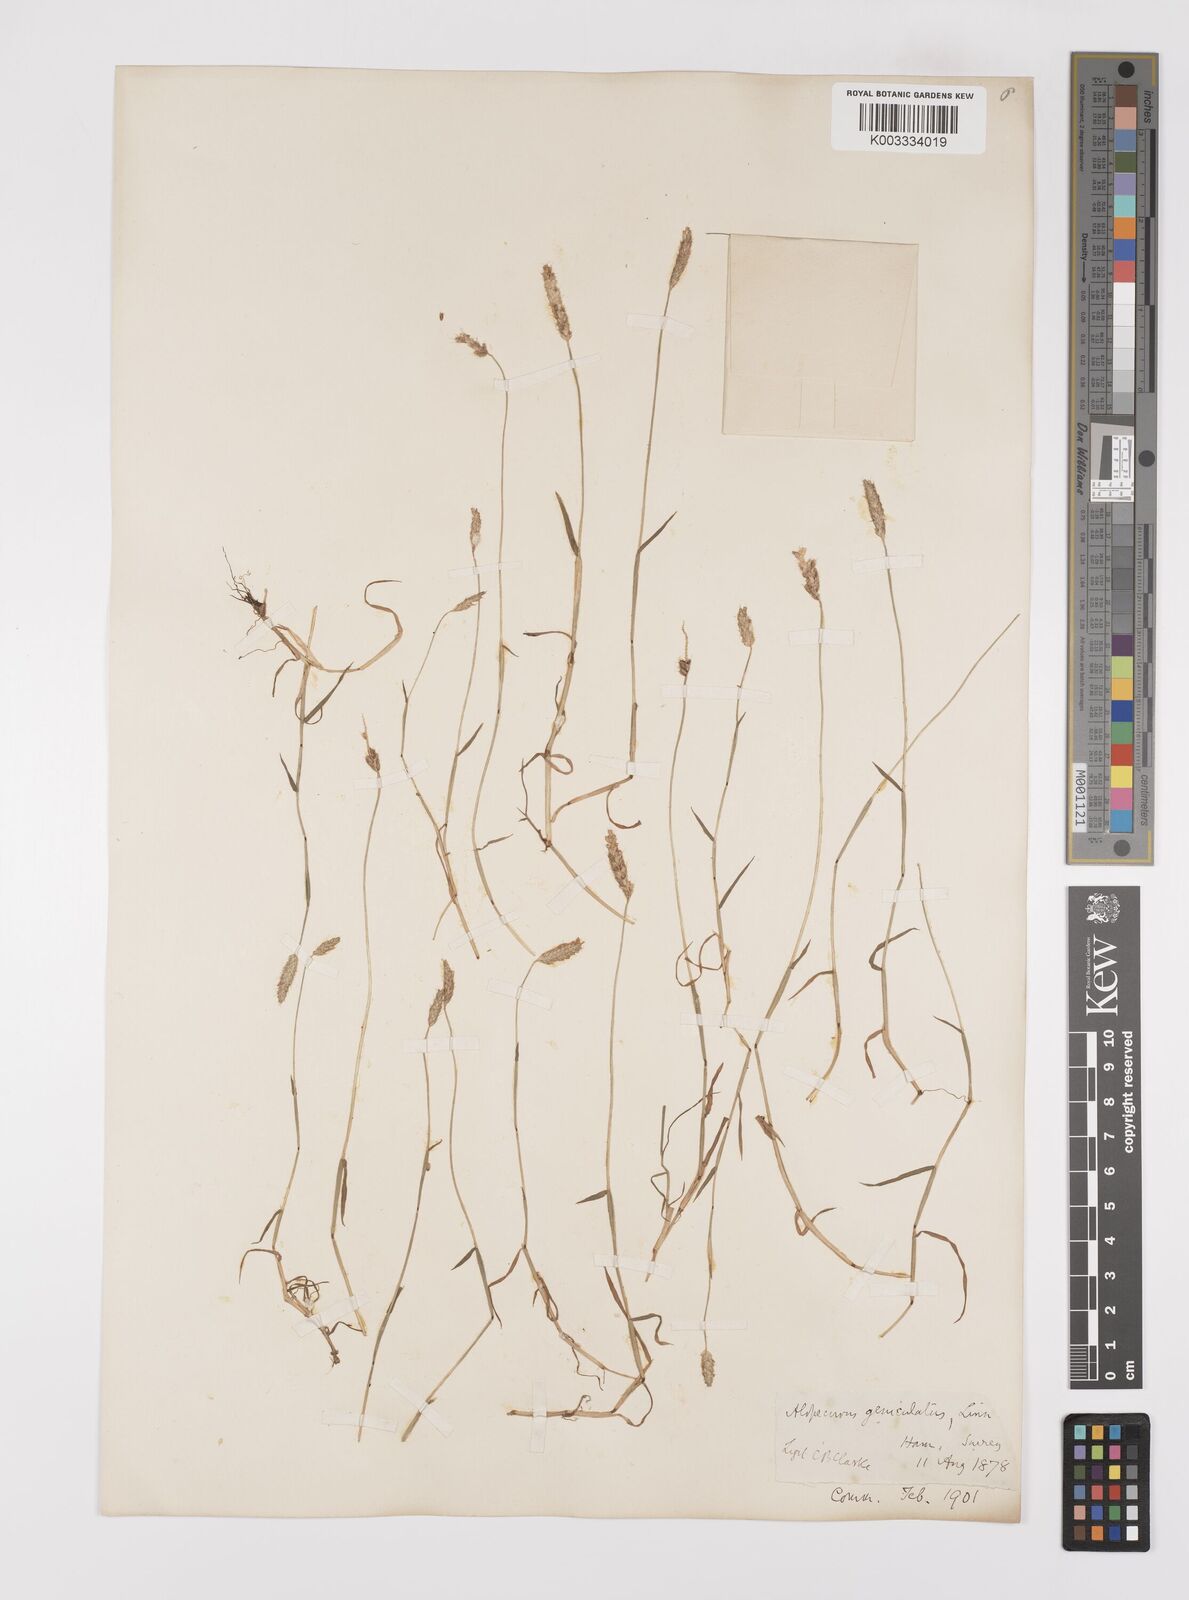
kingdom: Plantae
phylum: Tracheophyta
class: Liliopsida
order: Poales
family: Poaceae
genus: Alopecurus
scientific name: Alopecurus geniculatus
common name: Water foxtail
